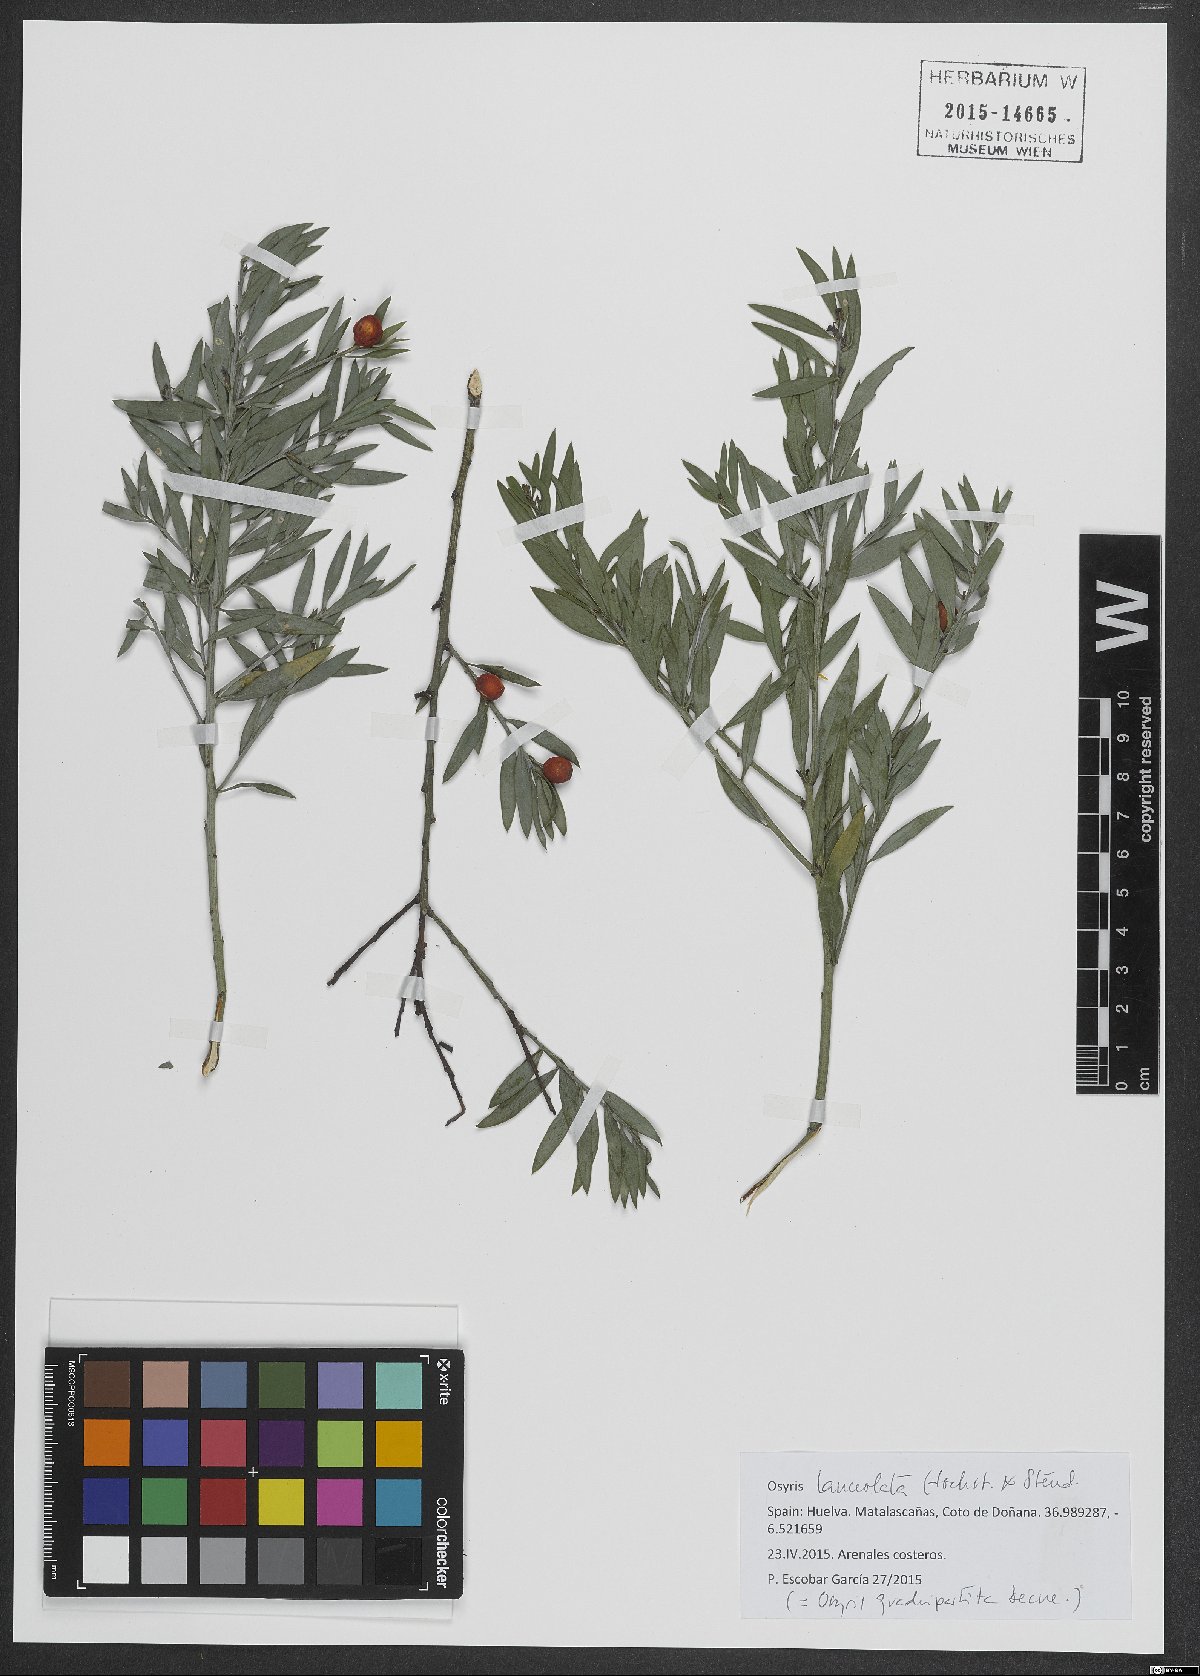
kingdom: Plantae
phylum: Tracheophyta
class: Magnoliopsida
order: Santalales
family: Santalaceae
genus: Osyris
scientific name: Osyris lanceolata
